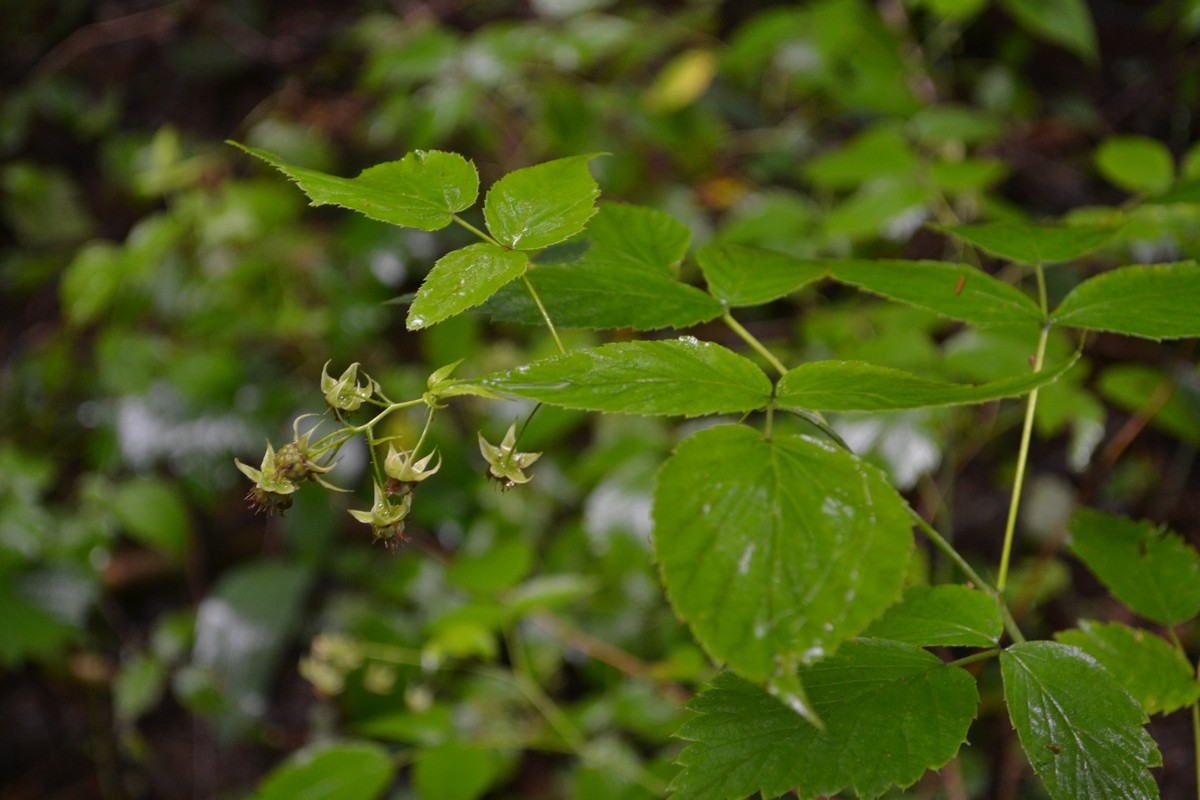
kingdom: Plantae
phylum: Tracheophyta
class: Magnoliopsida
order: Rosales
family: Rosaceae
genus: Rubus
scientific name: Rubus idaeus
